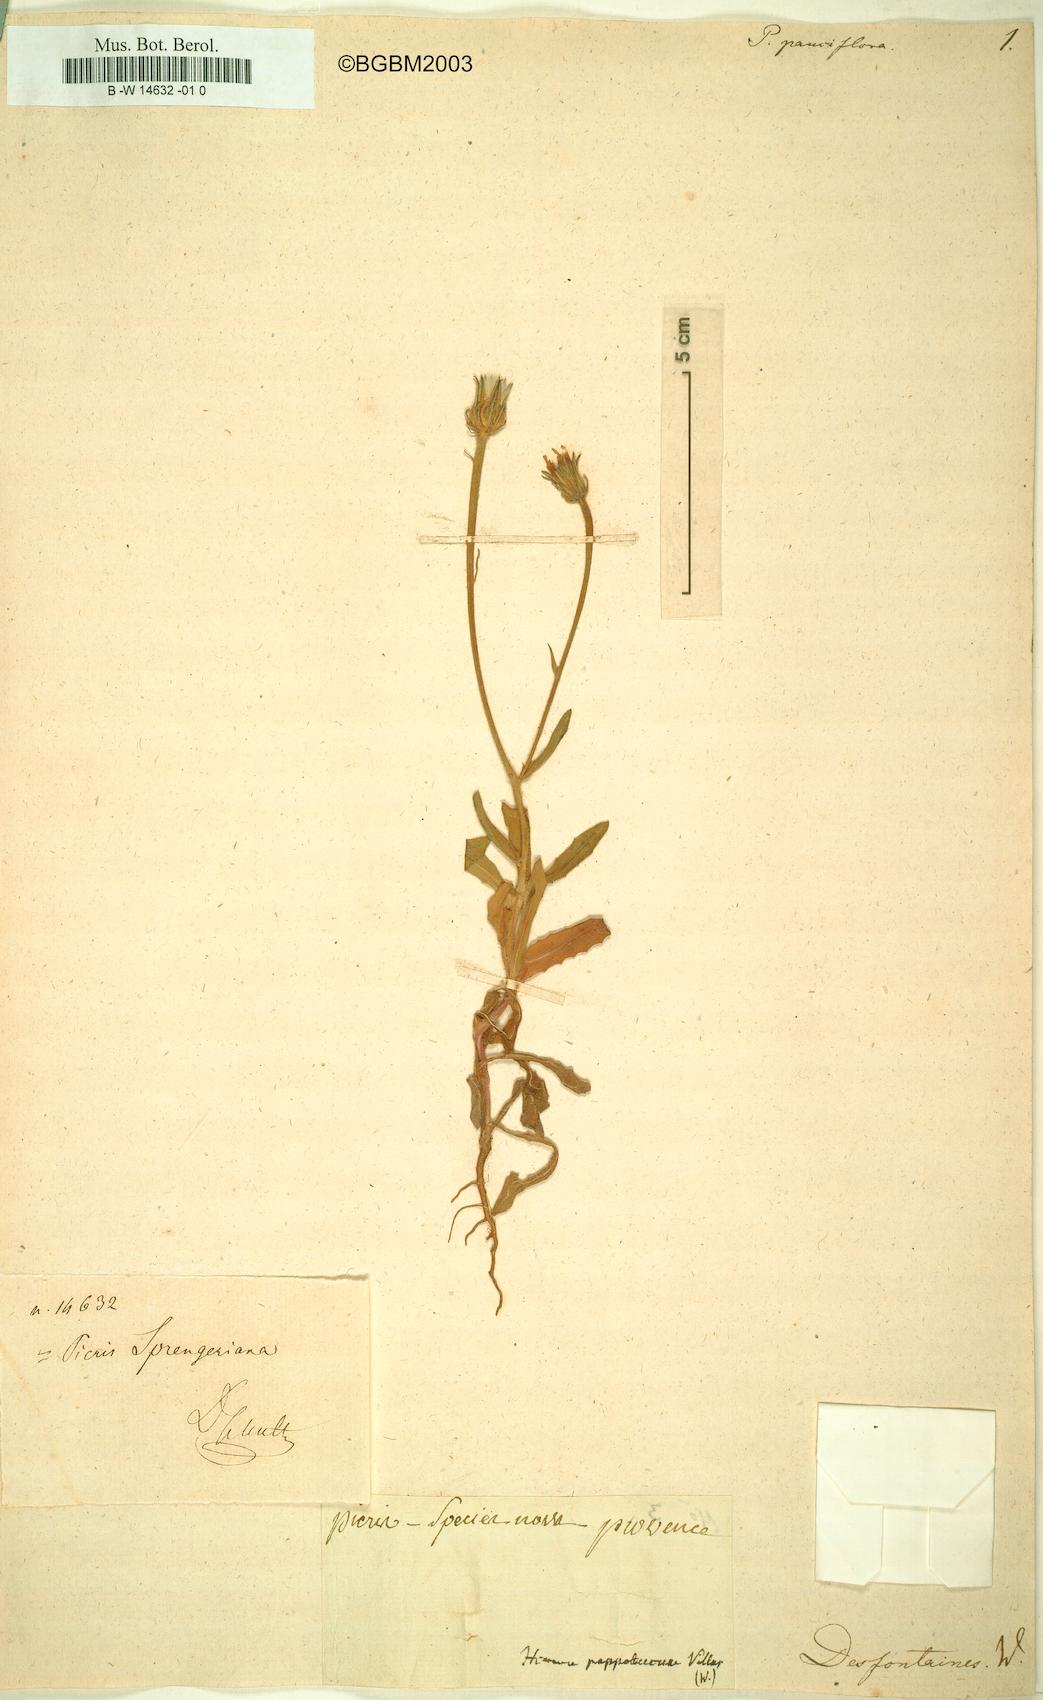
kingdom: Plantae
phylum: Tracheophyta
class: Magnoliopsida
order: Asterales
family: Asteraceae
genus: Picris
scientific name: Picris pauciflora
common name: Smallflower oxtongue
